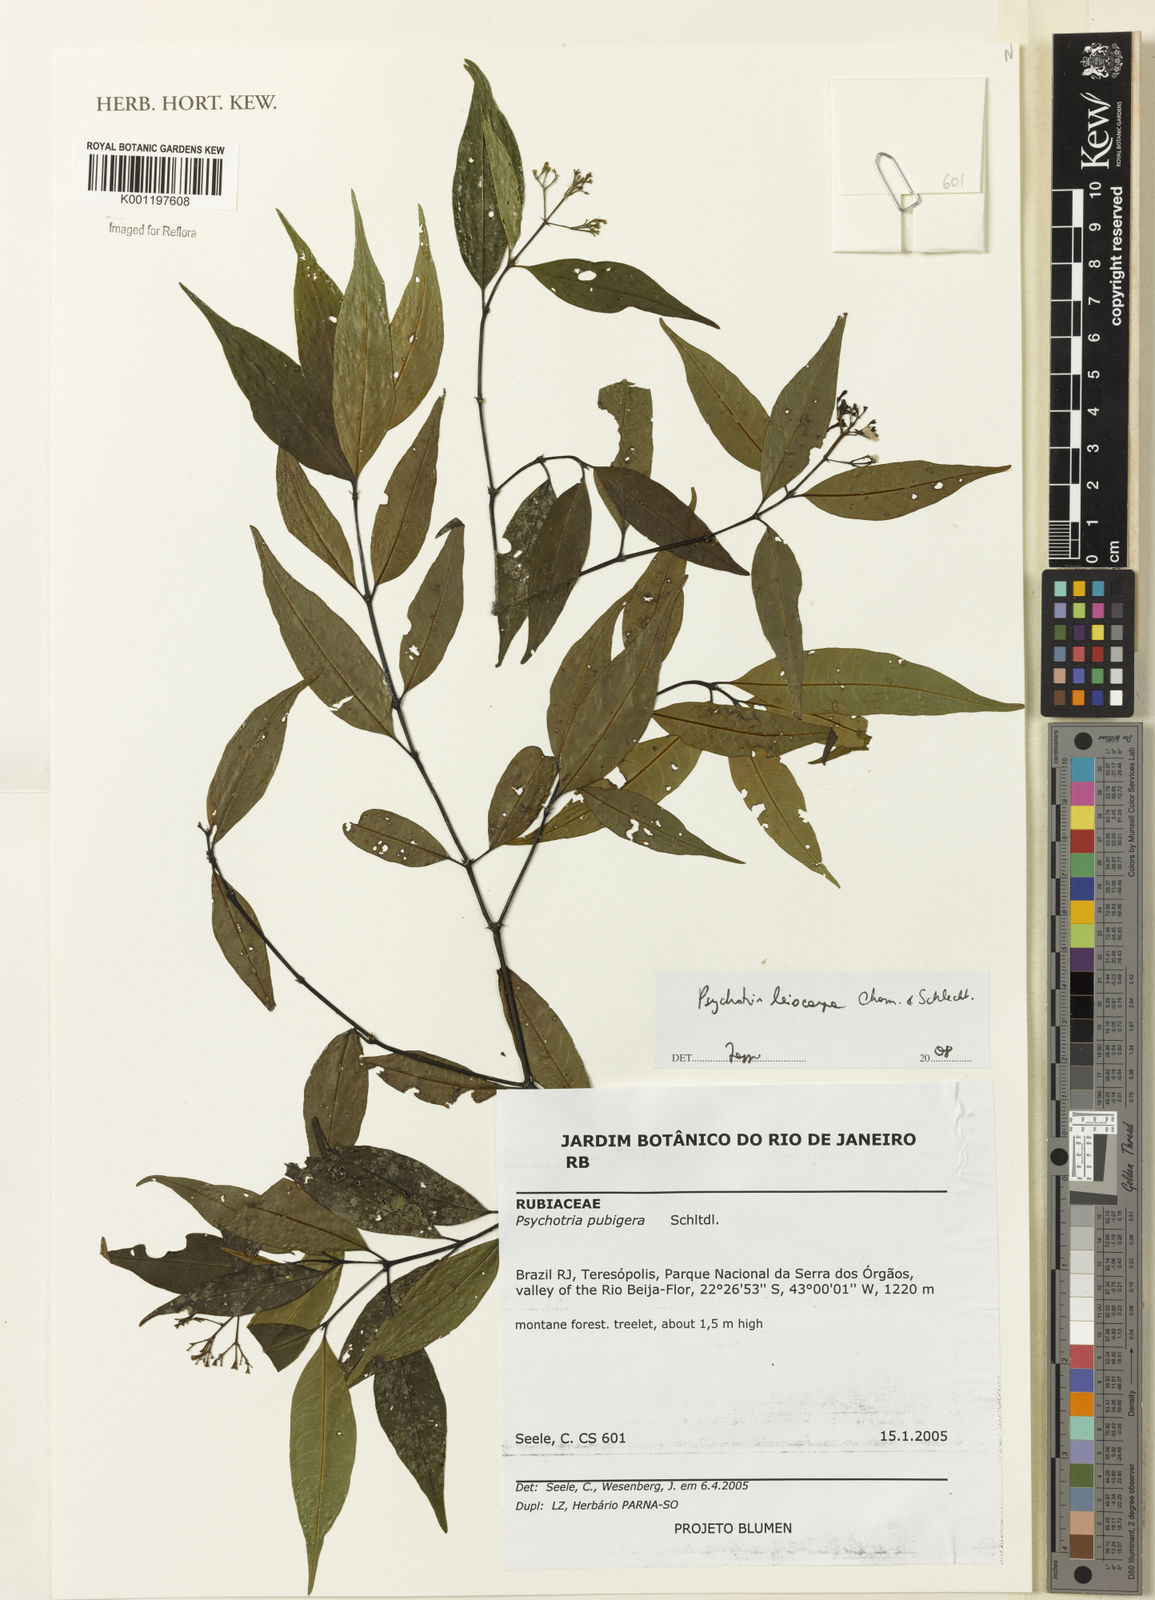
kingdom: Plantae
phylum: Tracheophyta
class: Magnoliopsida
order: Gentianales
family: Rubiaceae
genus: Psychotria
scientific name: Psychotria leiocarpa
